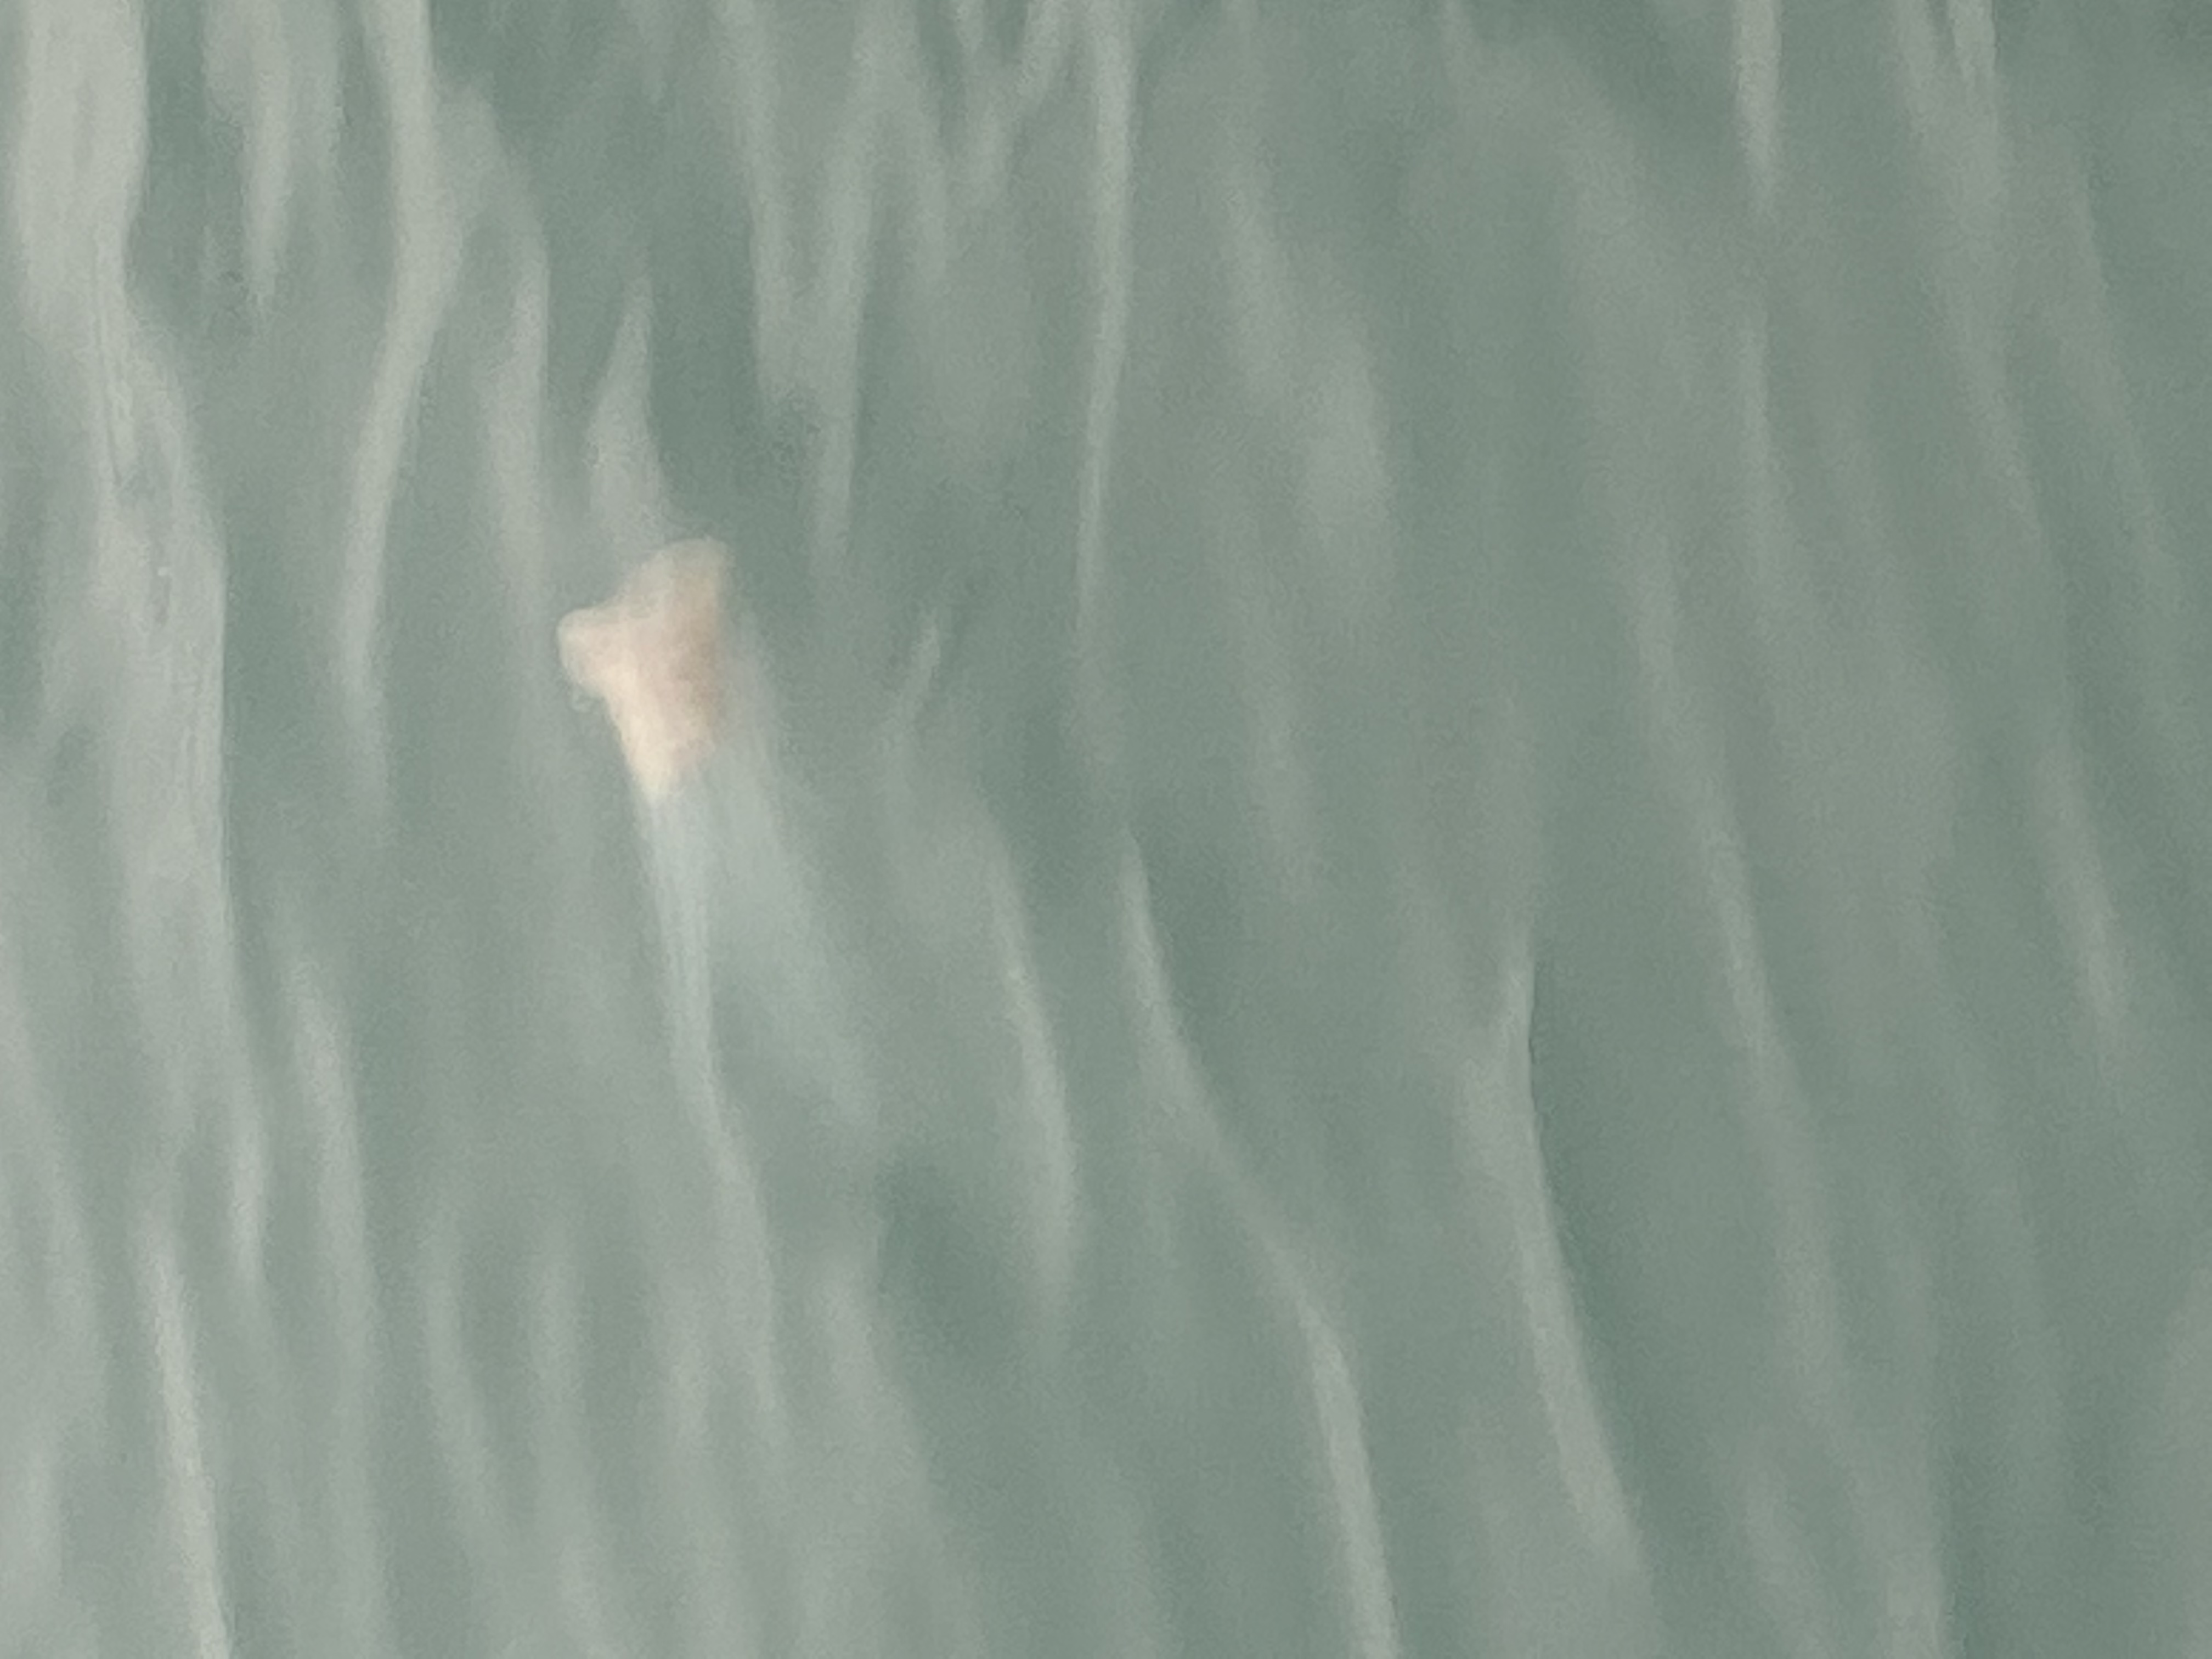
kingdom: Animalia
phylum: Cnidaria
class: Scyphozoa
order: Semaeostomeae
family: Cyaneidae
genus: Cyanea
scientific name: Cyanea nozakii
